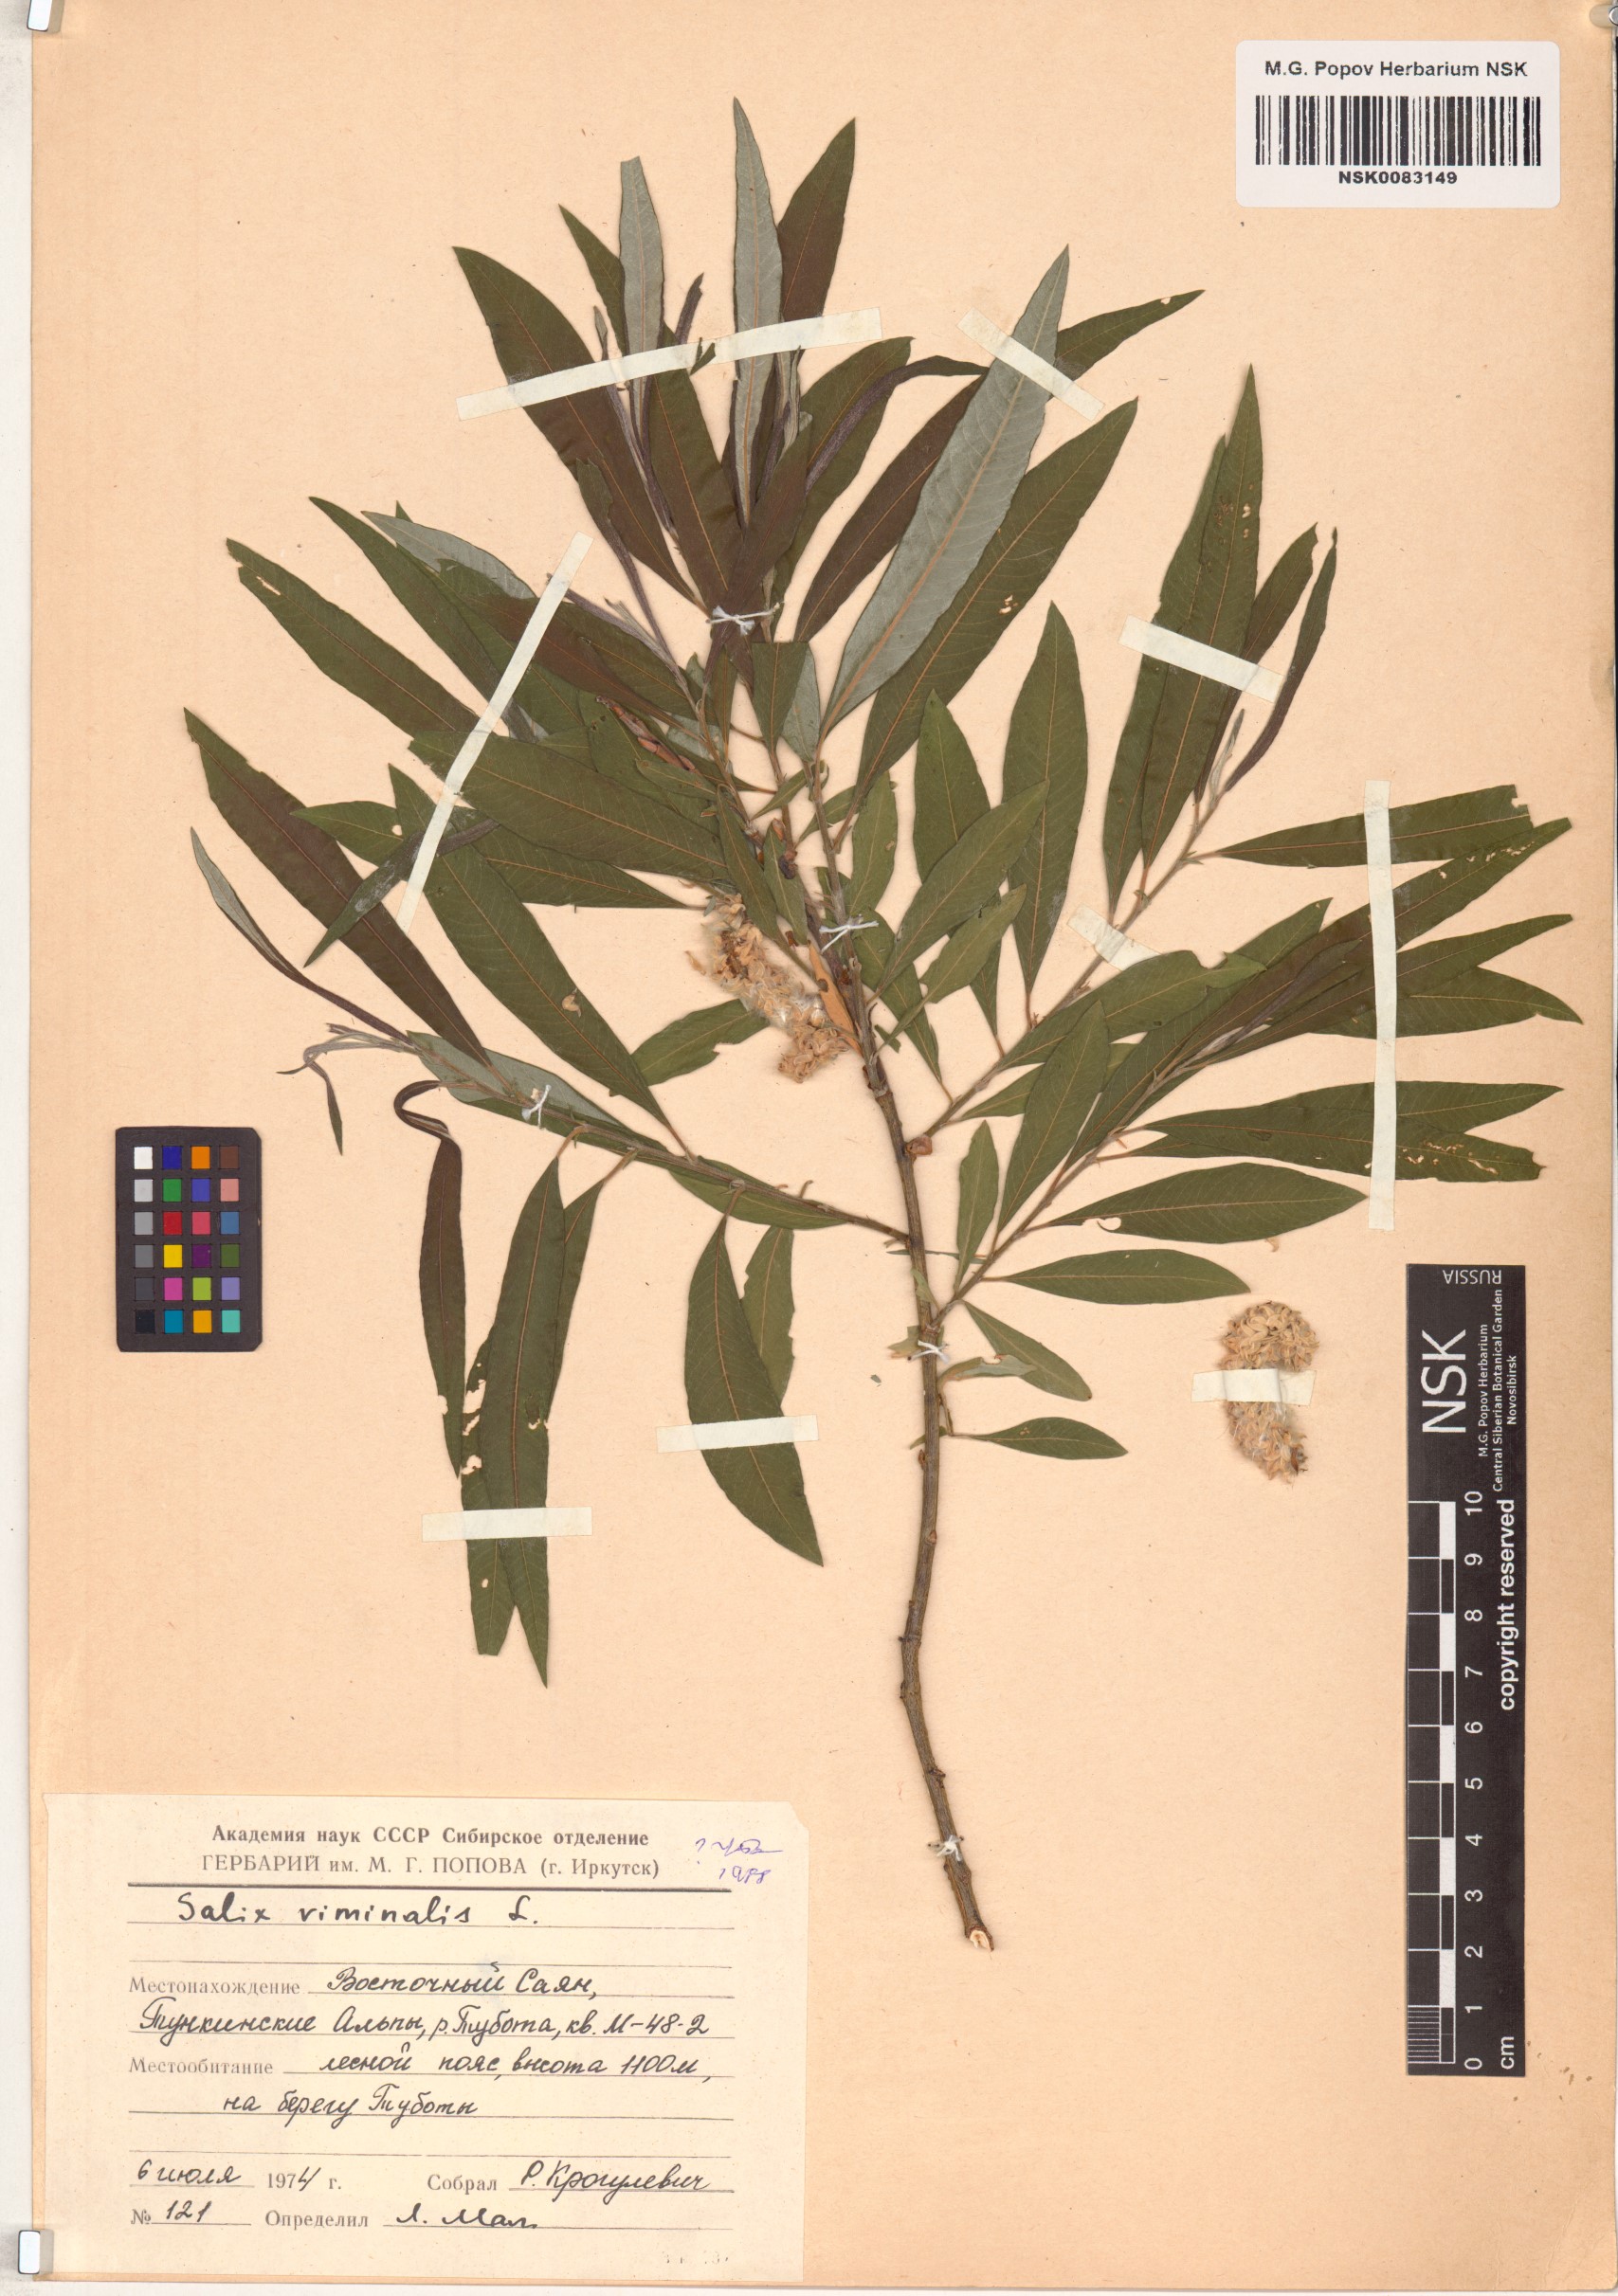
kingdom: Plantae
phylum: Tracheophyta
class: Magnoliopsida
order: Malpighiales
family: Salicaceae
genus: Salix
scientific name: Salix viminalis
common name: Osier
